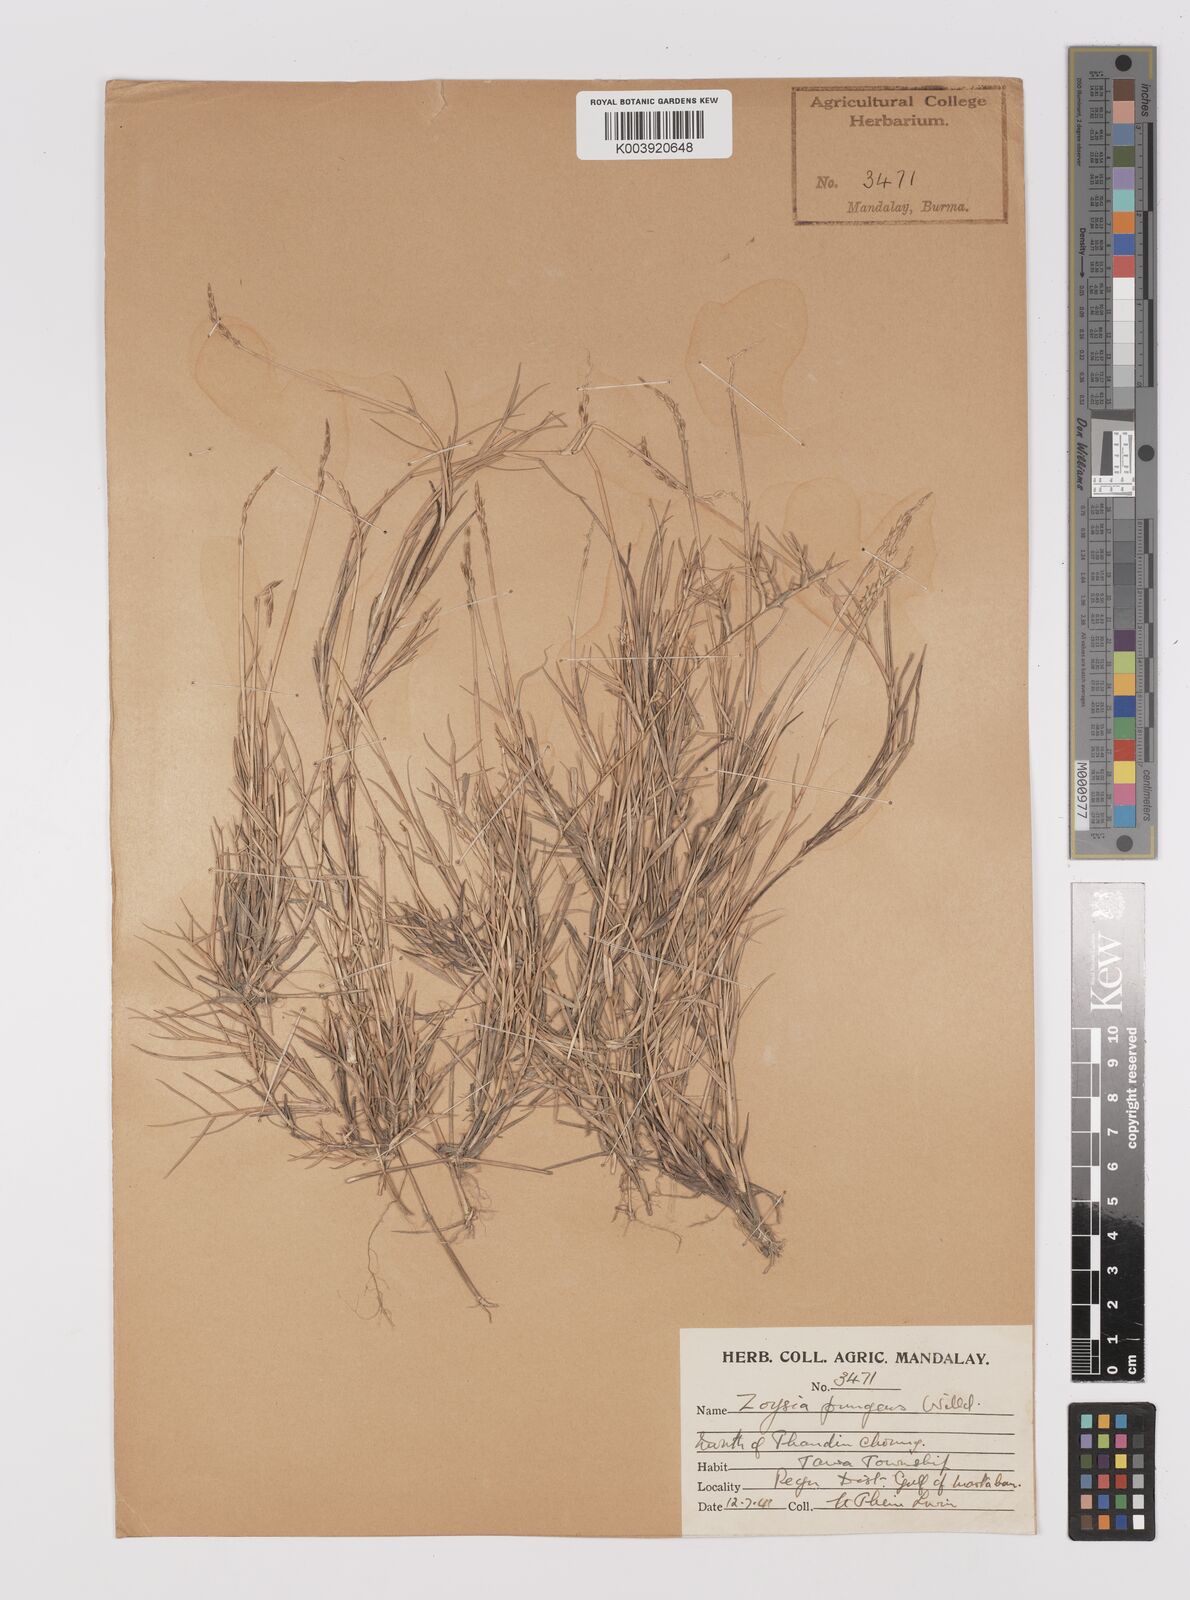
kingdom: Plantae
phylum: Tracheophyta
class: Liliopsida
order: Poales
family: Poaceae
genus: Zoysia
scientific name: Zoysia matrella
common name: Manila grass
